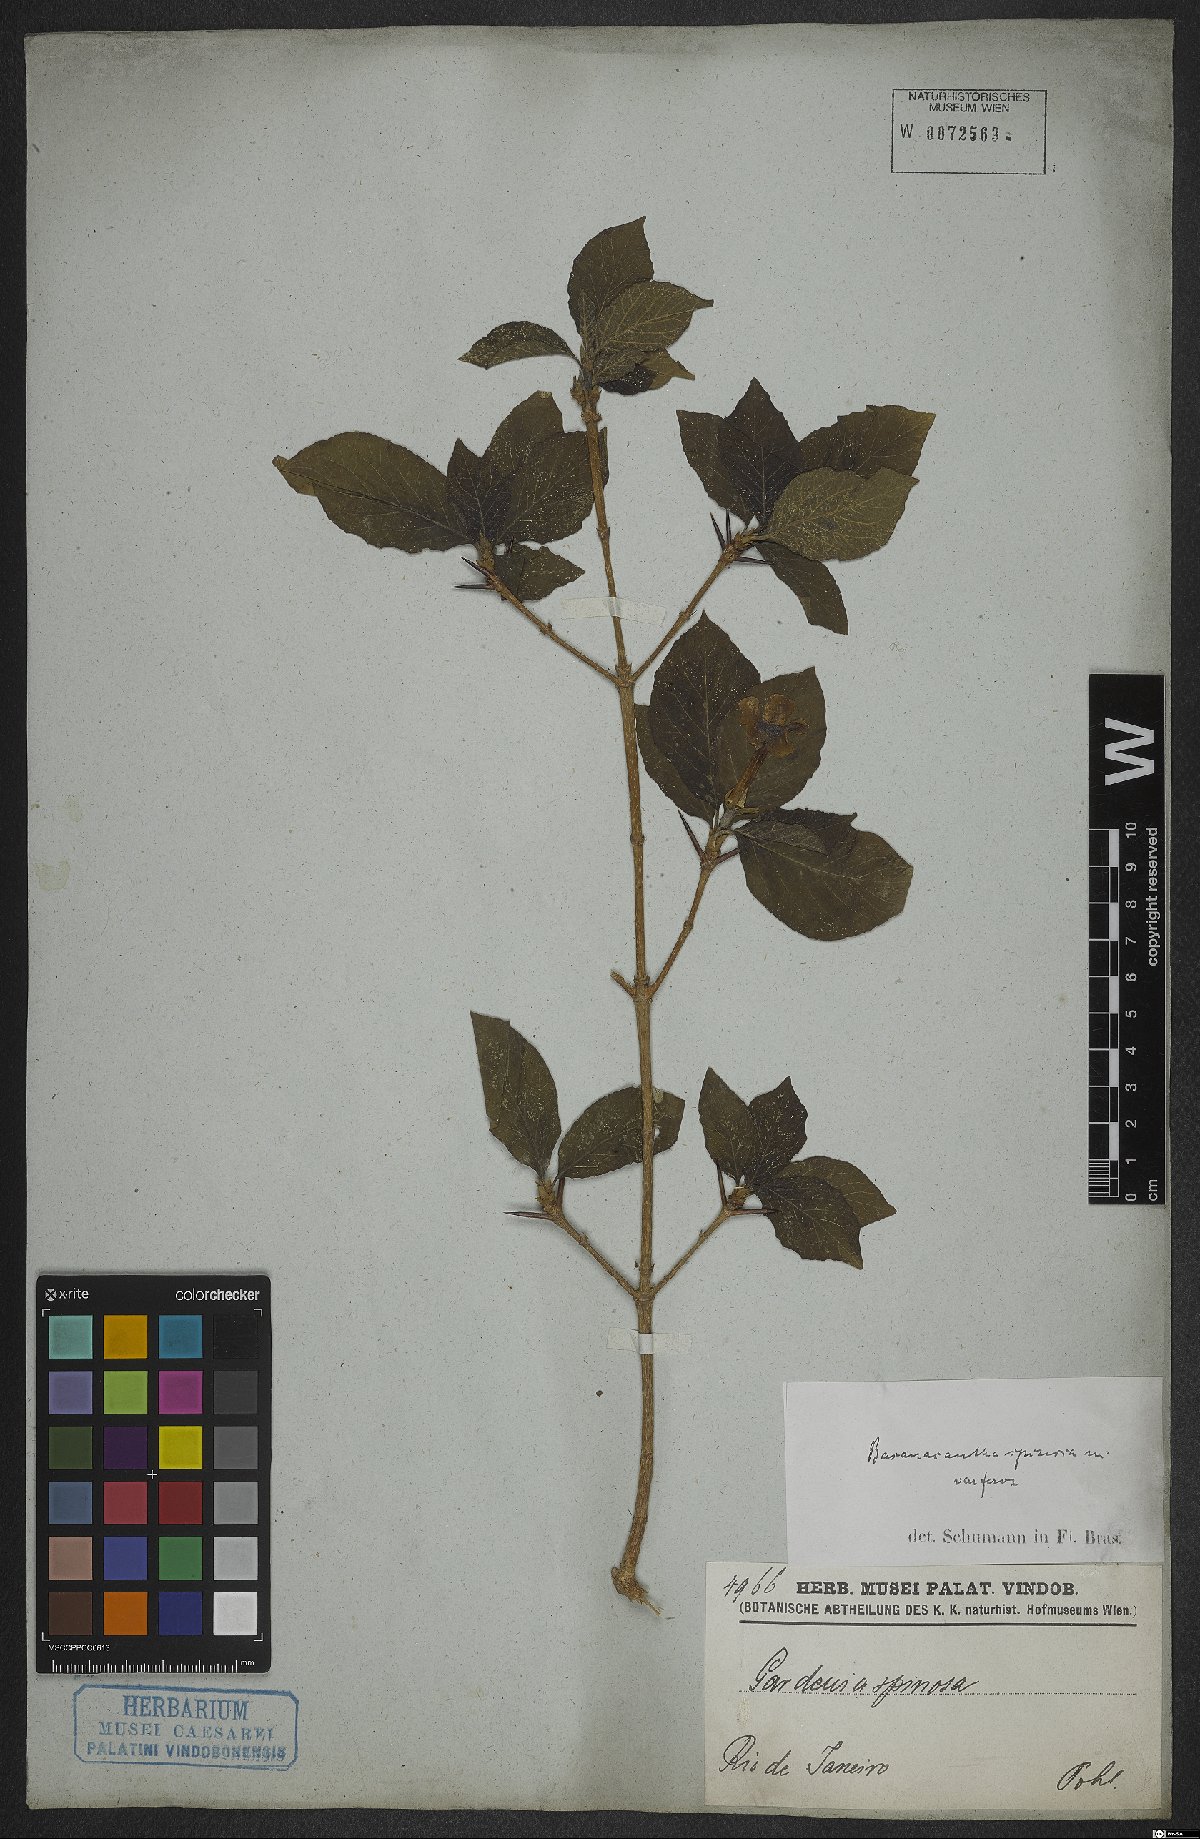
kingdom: Plantae
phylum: Tracheophyta
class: Magnoliopsida
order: Gentianales
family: Rubiaceae
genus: Randia
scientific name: Randia armata
